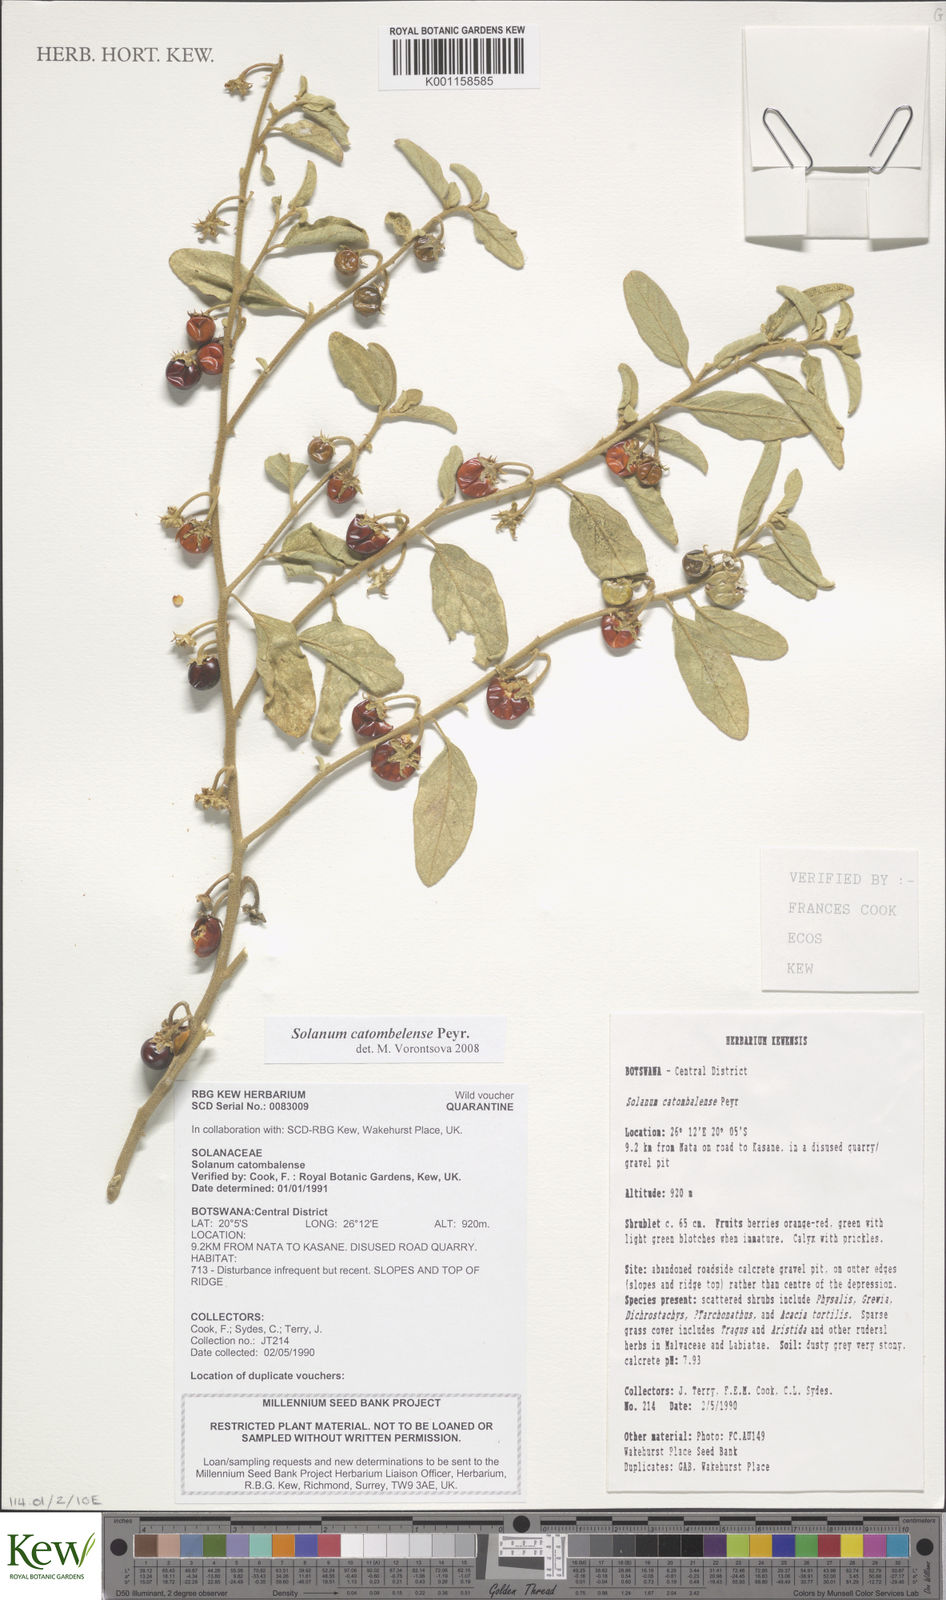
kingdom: Plantae
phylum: Tracheophyta
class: Magnoliopsida
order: Solanales
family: Solanaceae
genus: Solanum
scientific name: Solanum catombelense
